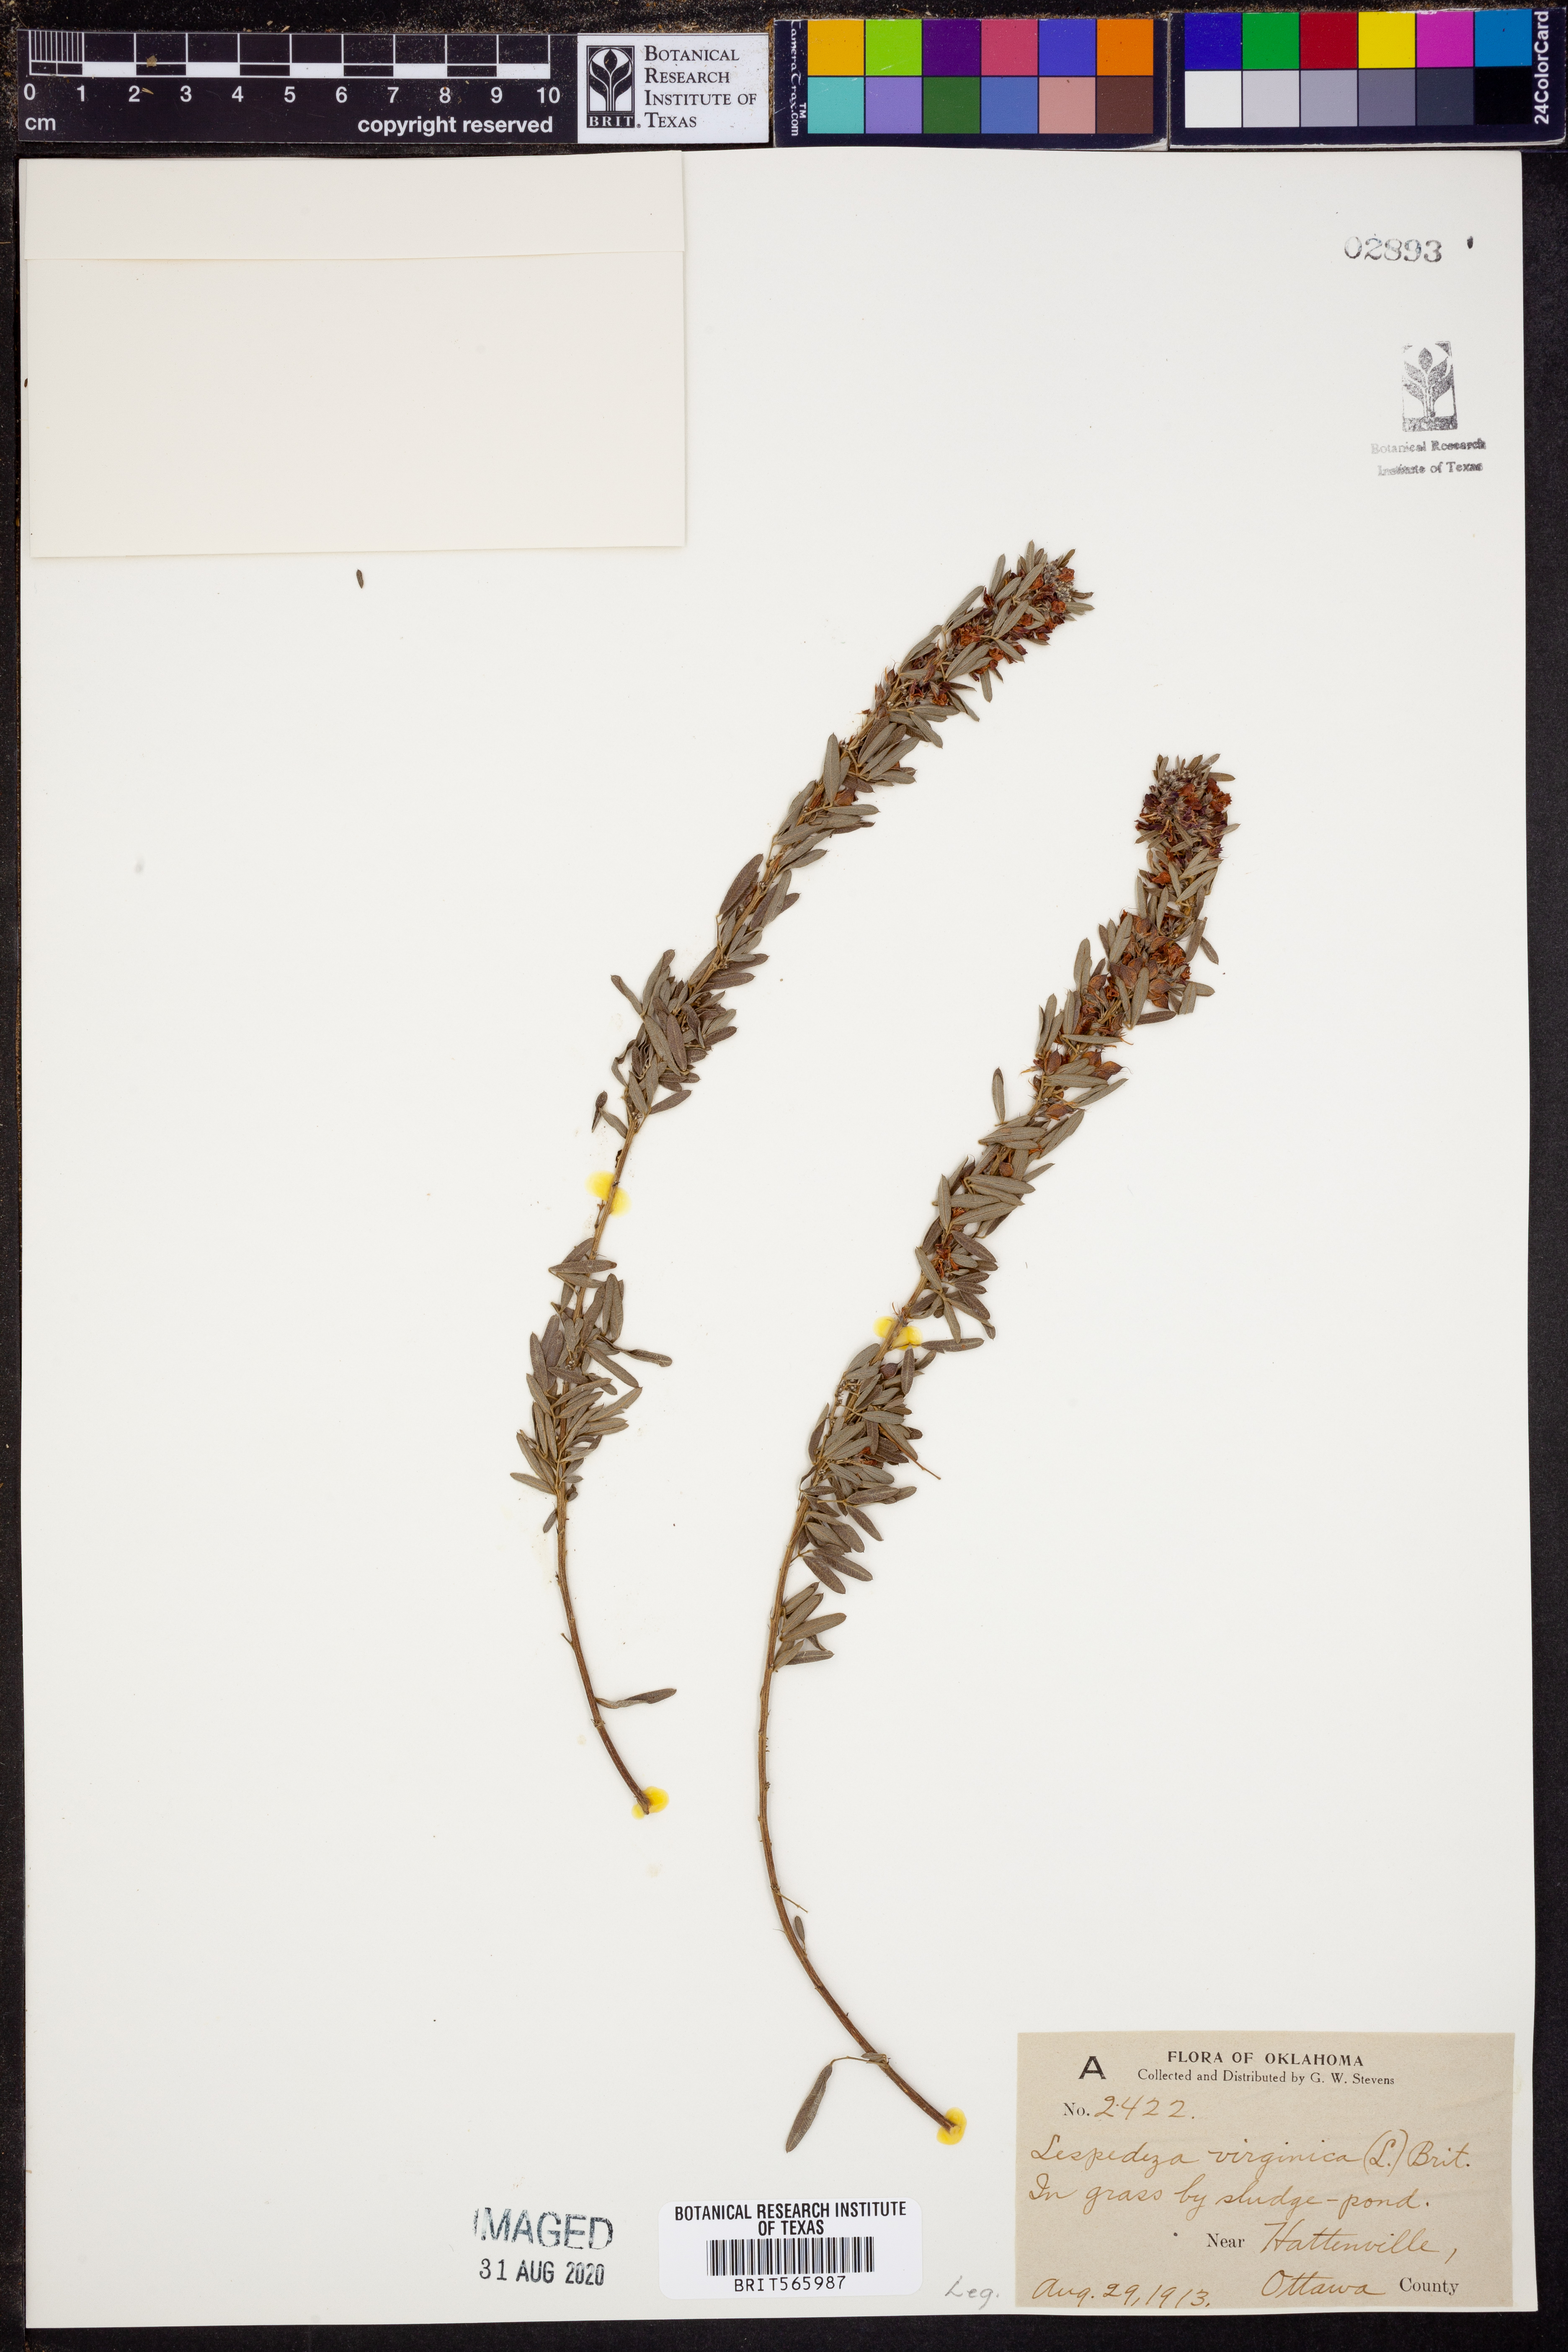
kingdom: Plantae
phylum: Tracheophyta
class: Magnoliopsida
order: Fabales
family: Fabaceae
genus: Lespedeza
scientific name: Lespedeza virginica
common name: Slender bush-clover
